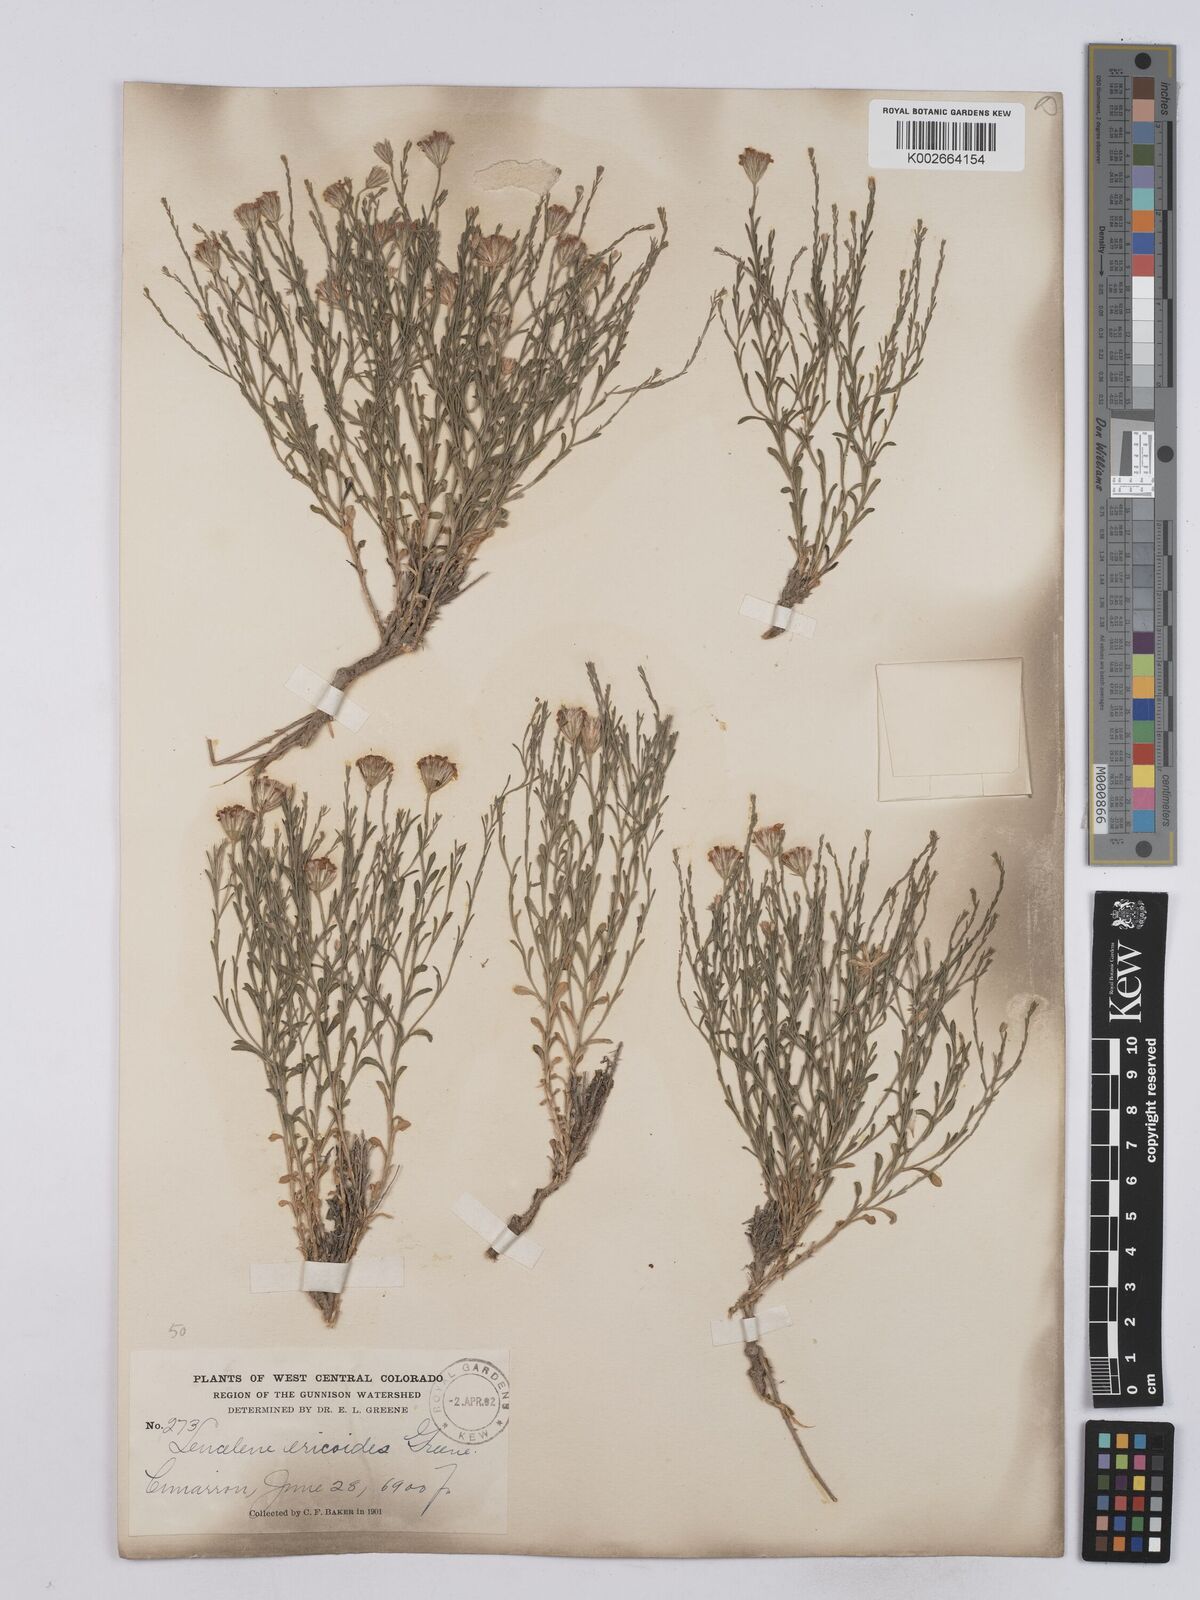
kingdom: Plantae
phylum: Tracheophyta
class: Magnoliopsida
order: Asterales
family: Asteraceae
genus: Chaetopappa
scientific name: Chaetopappa ericoides
